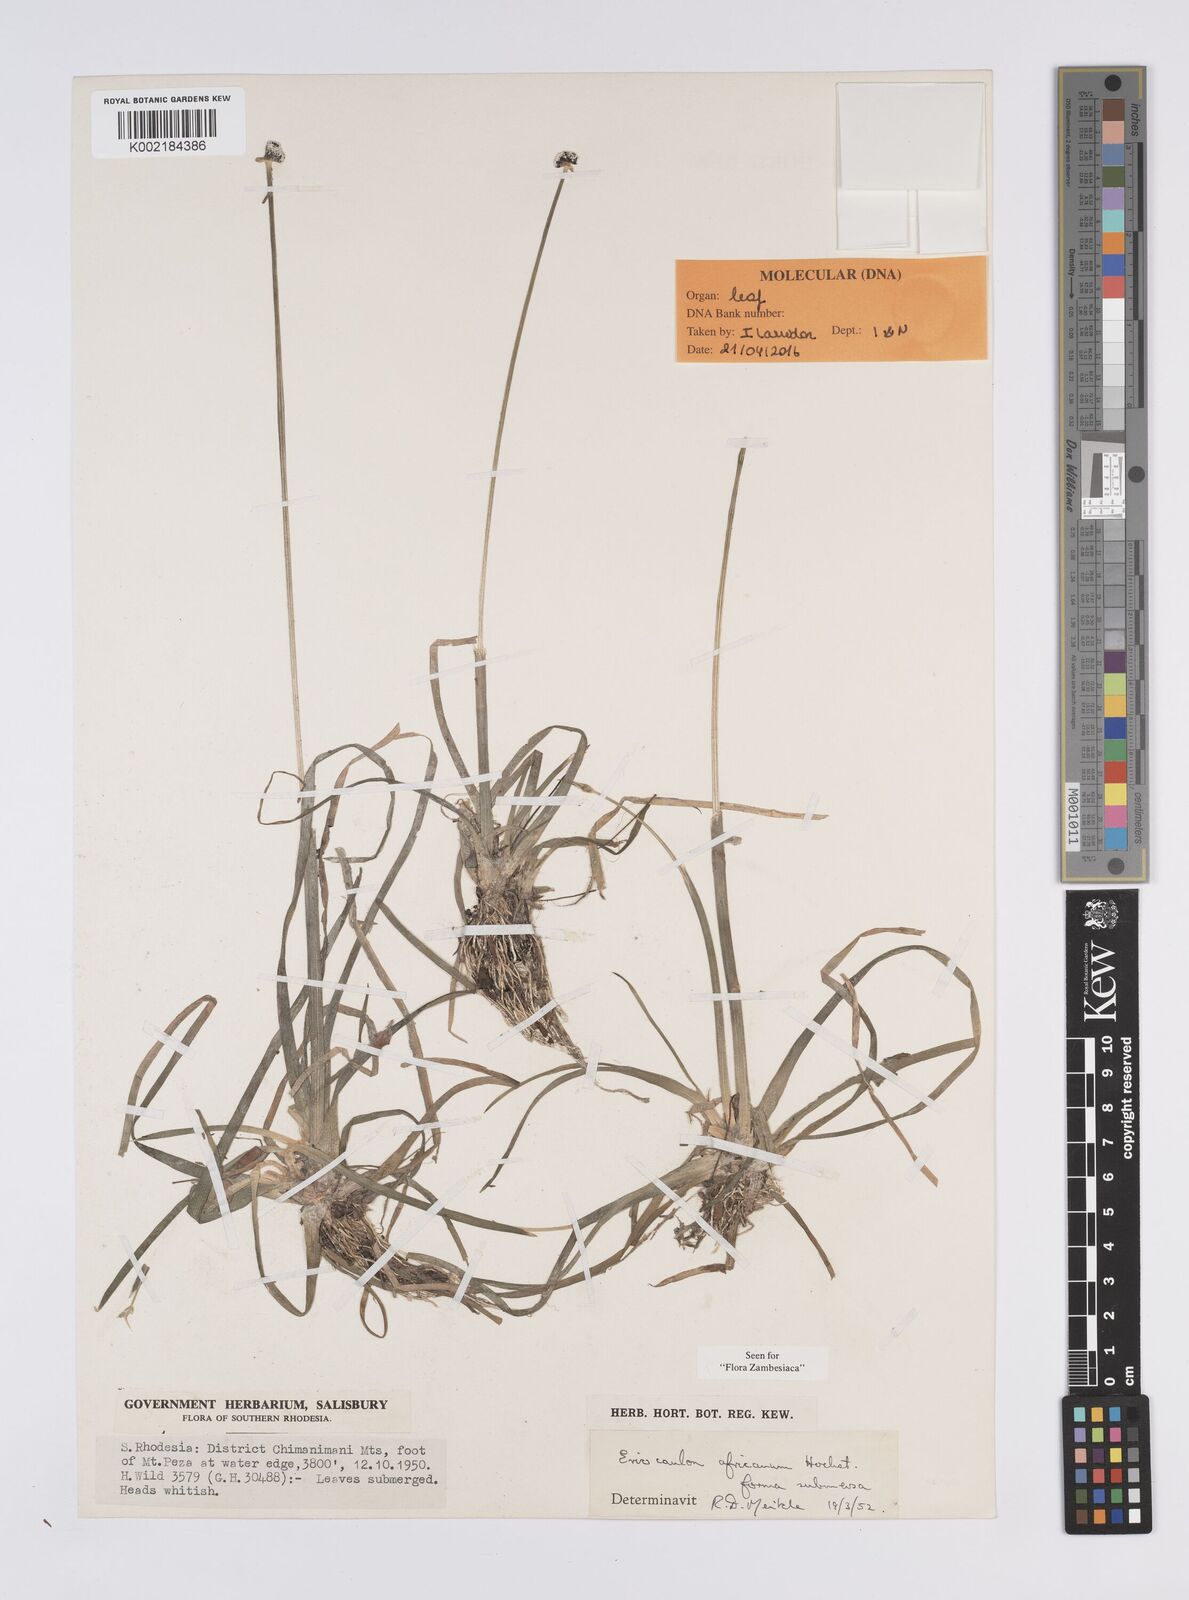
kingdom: Plantae
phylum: Tracheophyta
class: Liliopsida
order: Poales
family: Eriocaulaceae
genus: Eriocaulon
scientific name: Eriocaulon africanum
